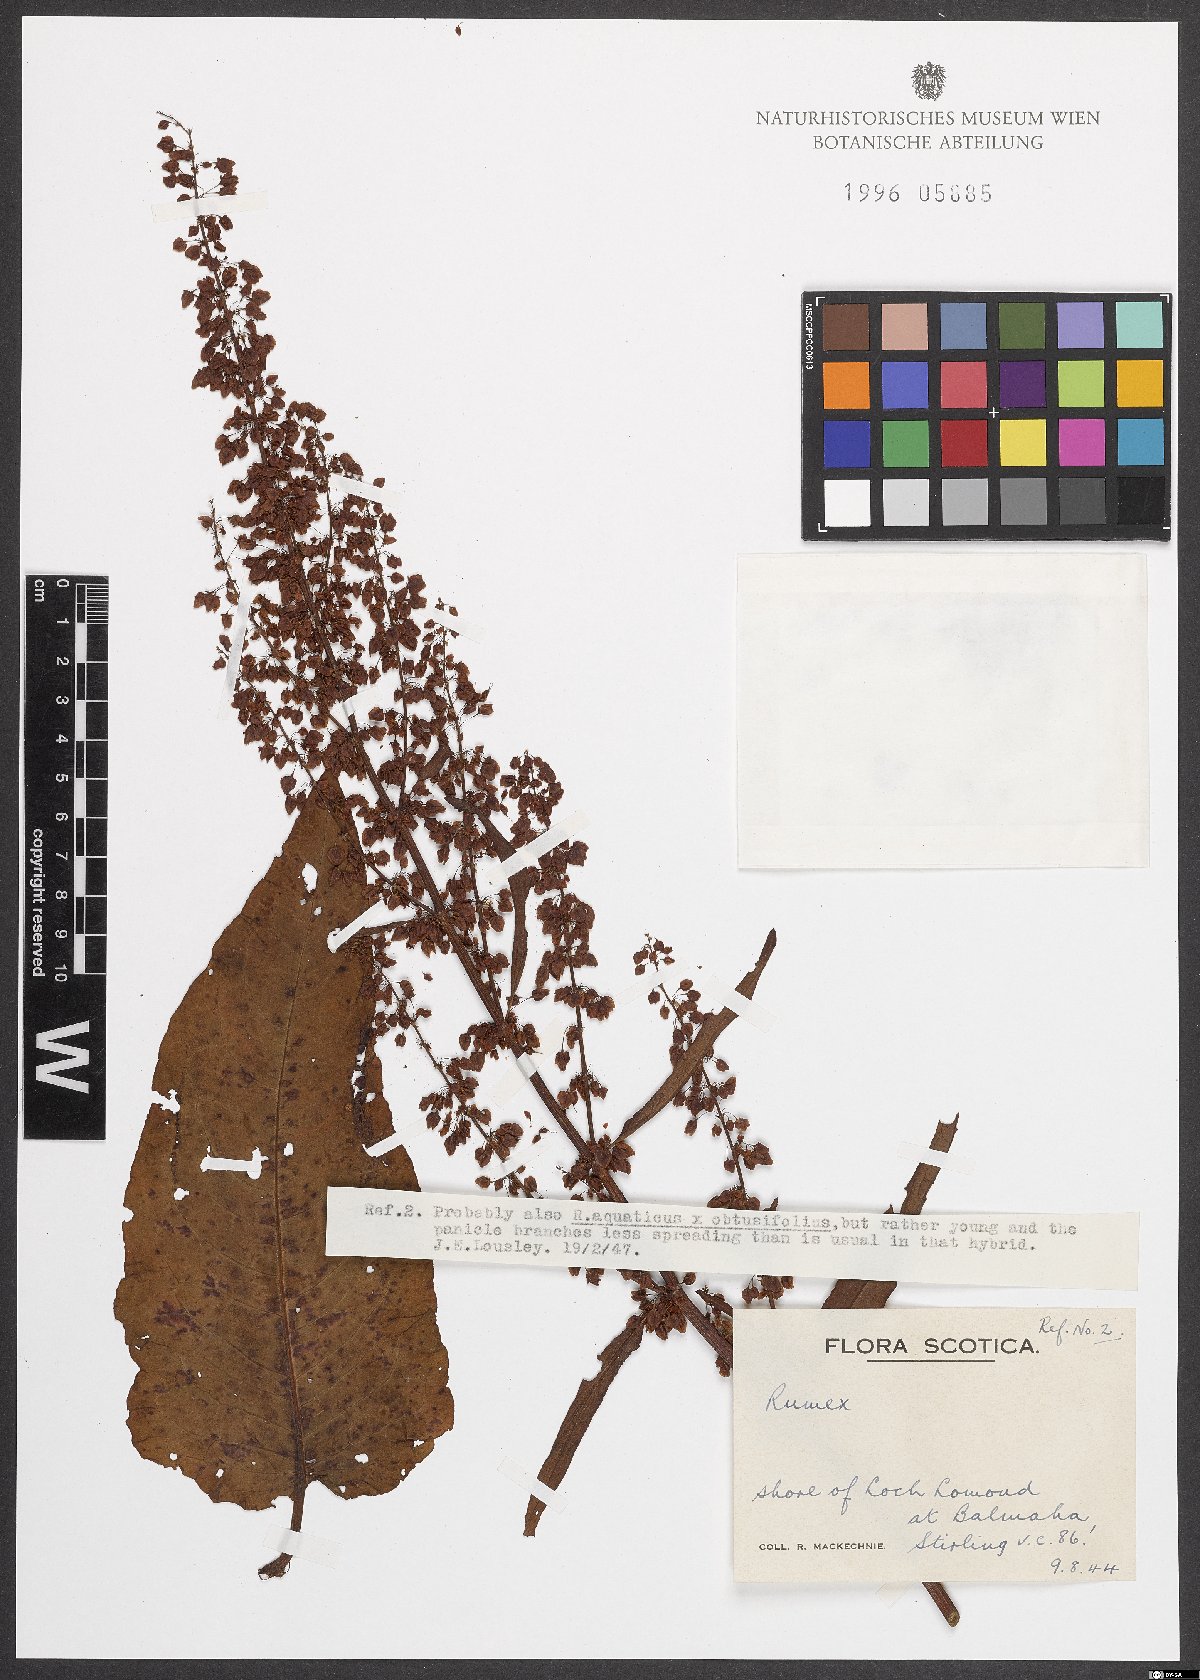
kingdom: Plantae
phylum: Tracheophyta
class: Magnoliopsida
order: Caryophyllales
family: Polygonaceae
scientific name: Polygonaceae
